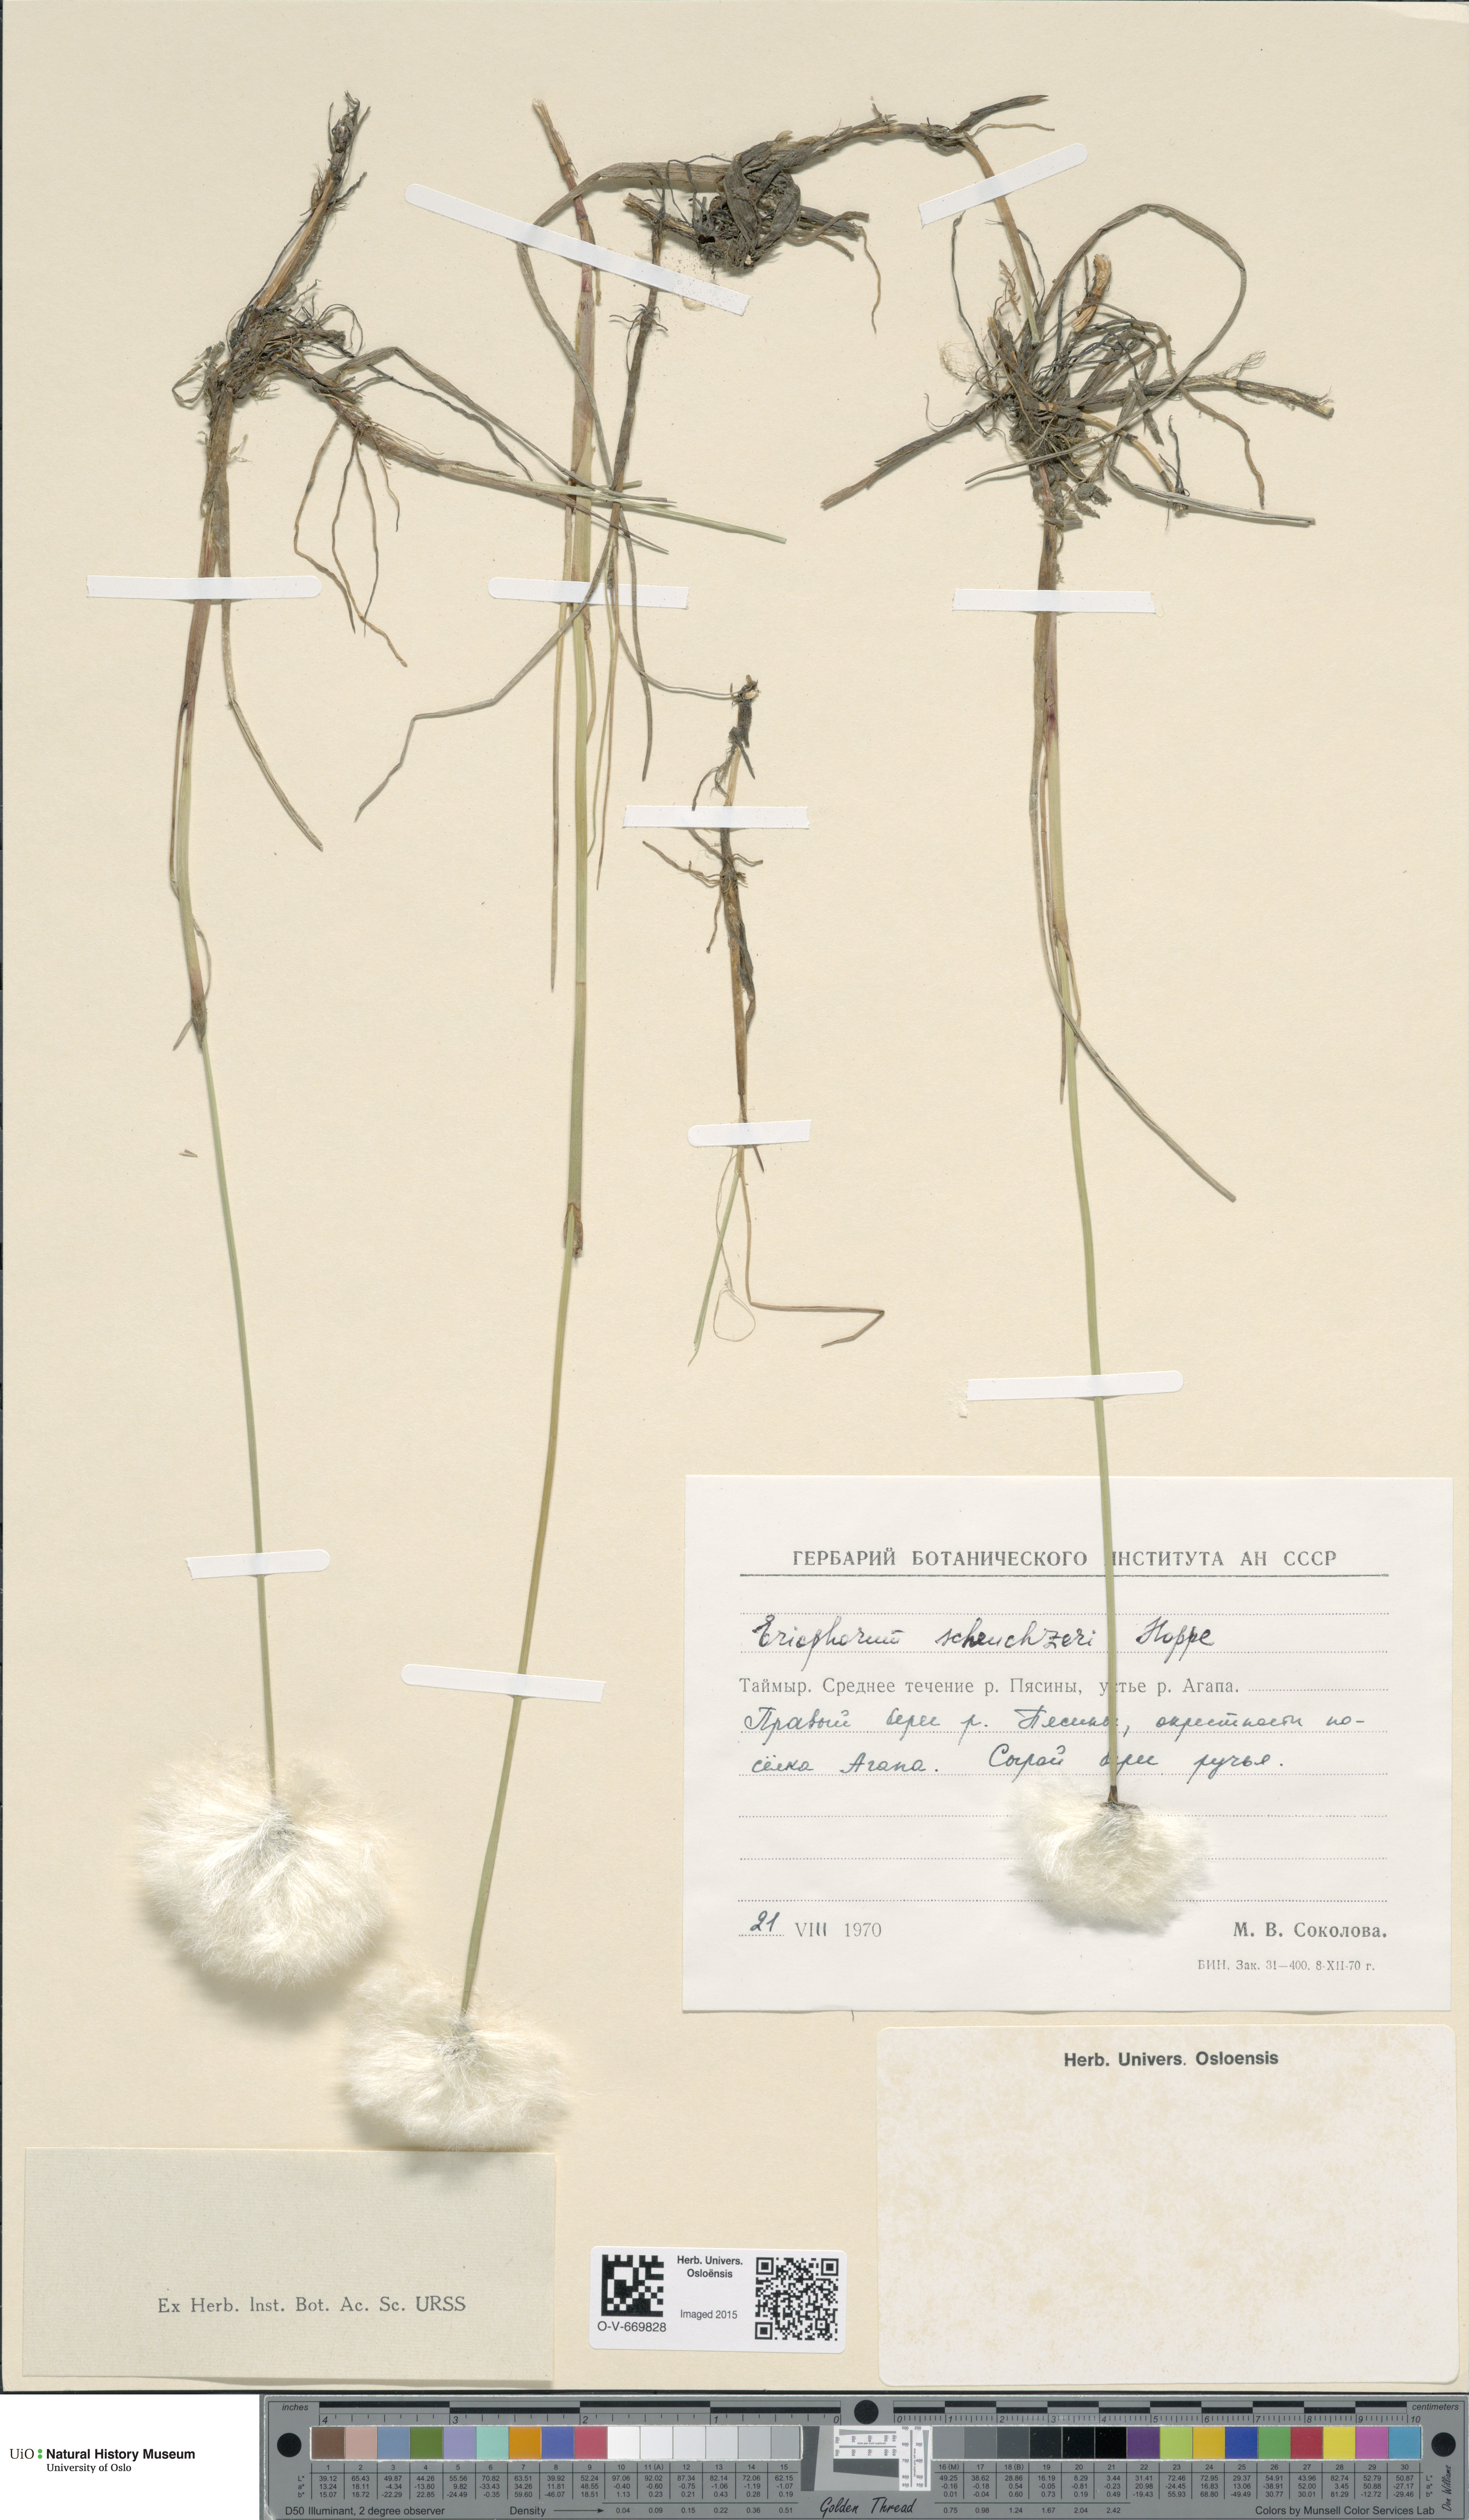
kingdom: Plantae
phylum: Tracheophyta
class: Liliopsida
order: Poales
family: Cyperaceae
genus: Eriophorum
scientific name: Eriophorum scheuchzeri
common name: Scheuchzer's cottongrass
